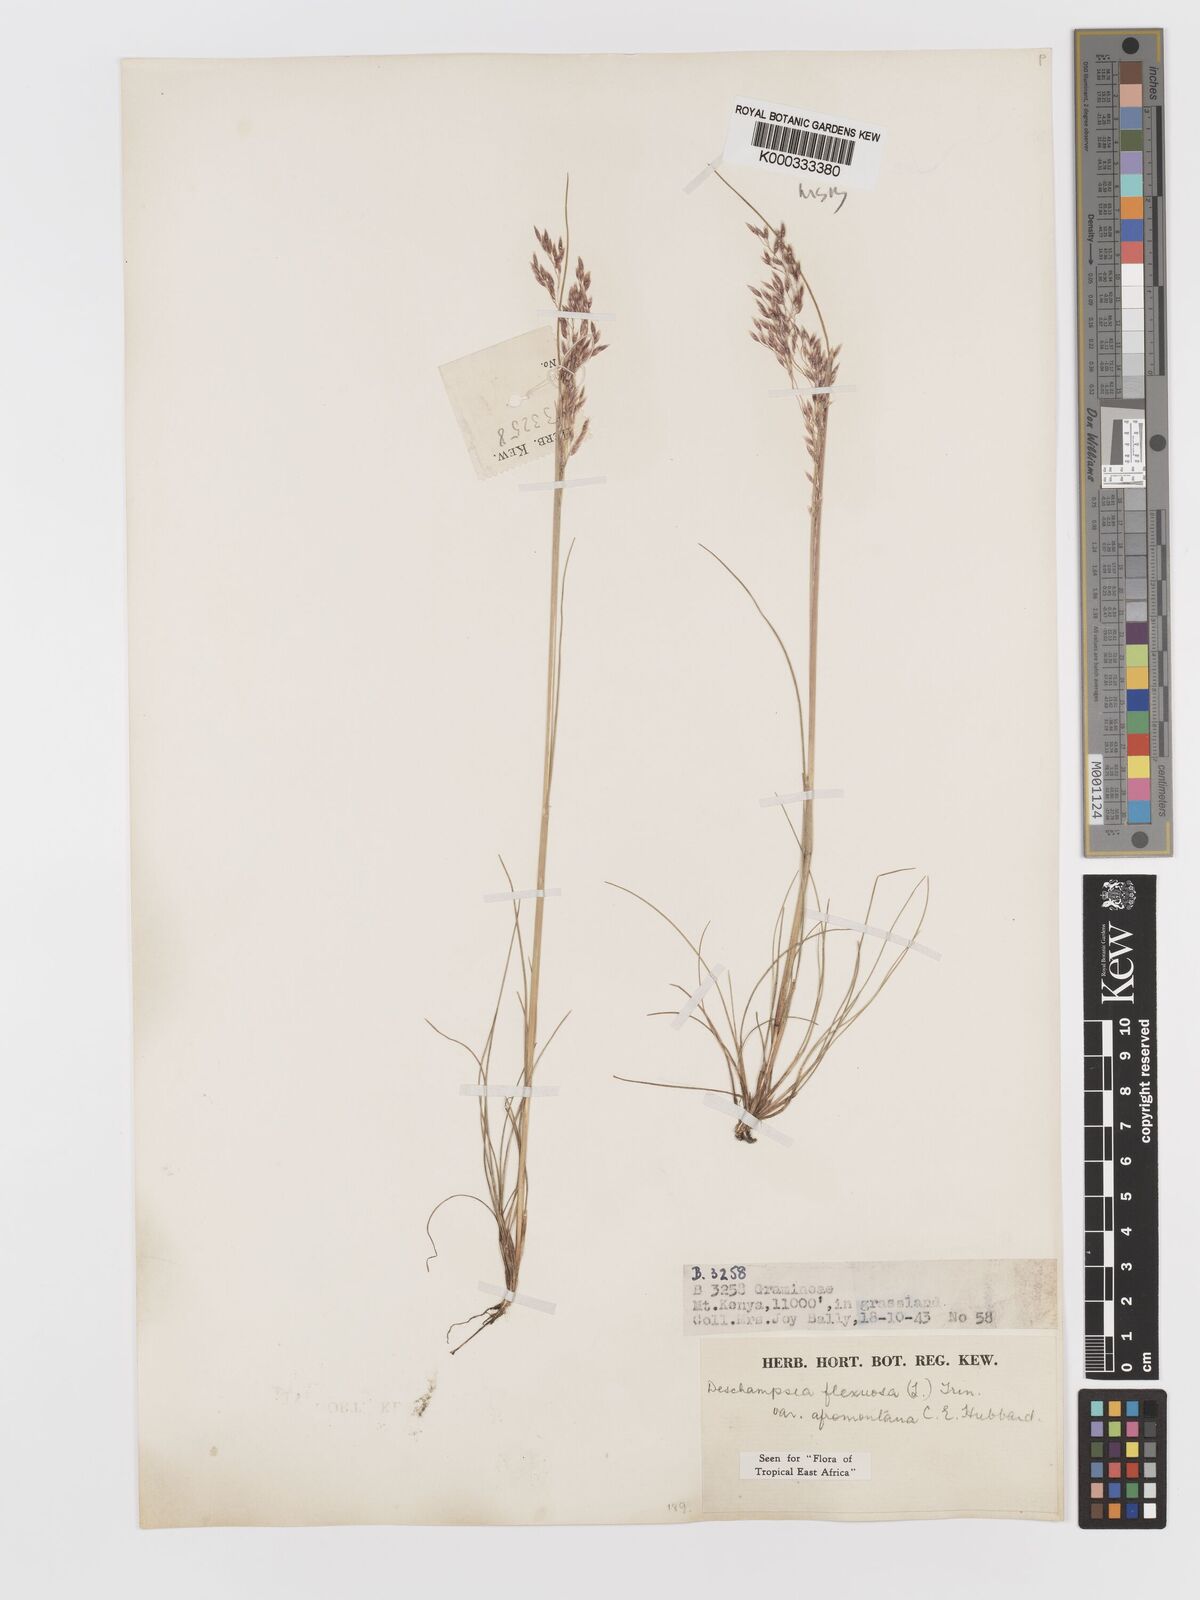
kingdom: Plantae
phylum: Tracheophyta
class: Liliopsida
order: Poales
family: Poaceae
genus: Avenella
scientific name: Avenella flexuosa
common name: Wavy hairgrass
